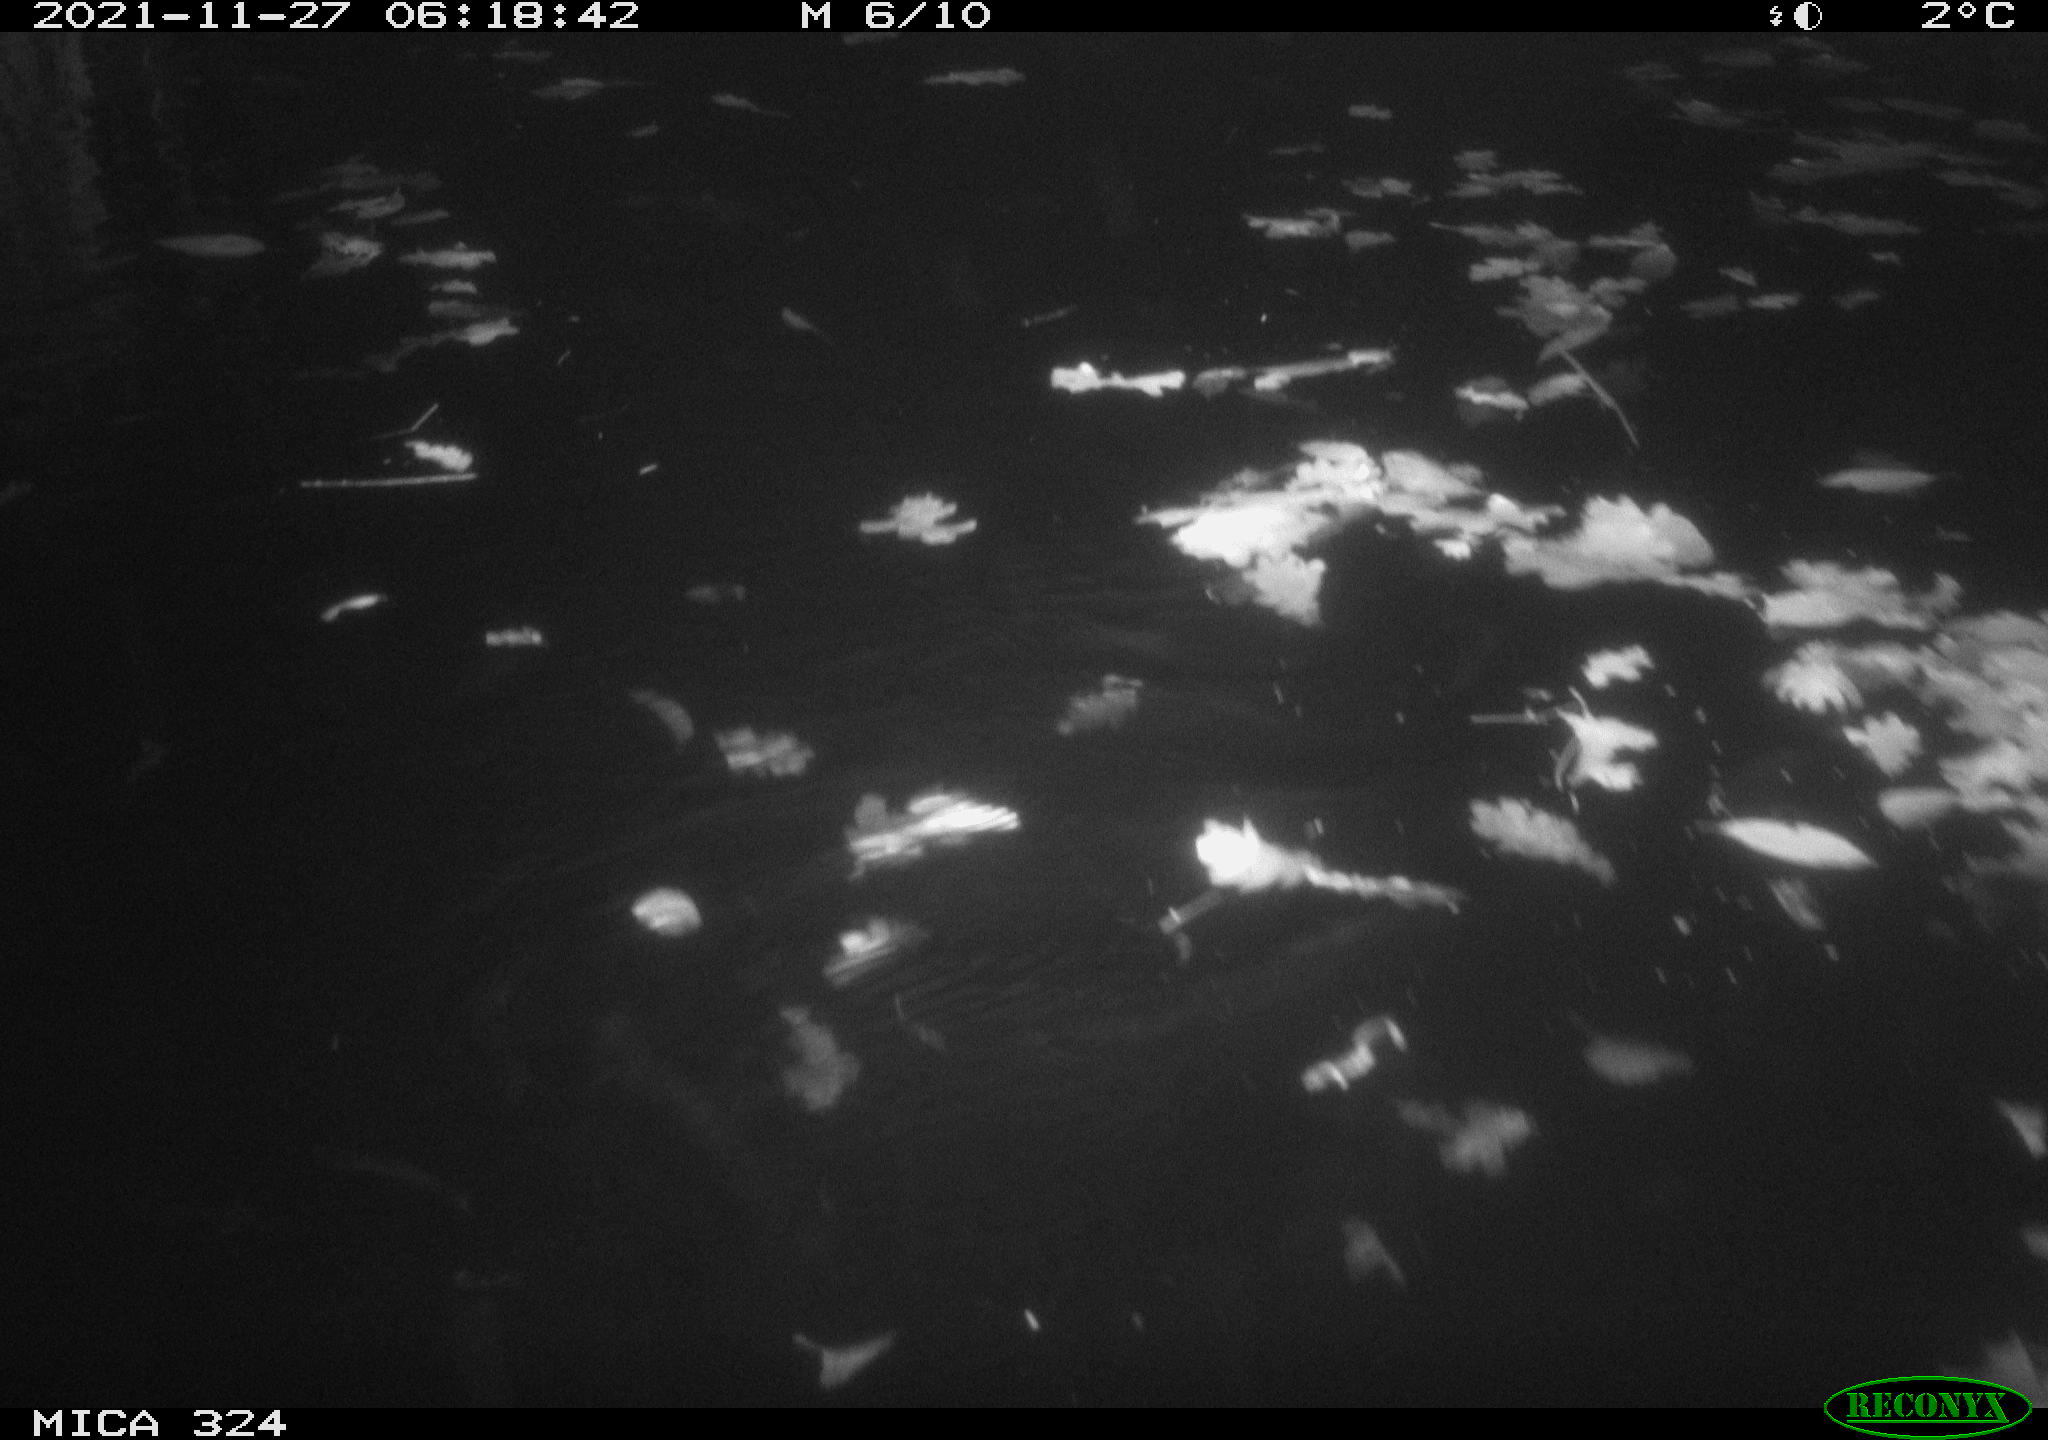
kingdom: Animalia
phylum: Chordata
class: Mammalia
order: Rodentia
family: Cricetidae
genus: Ondatra
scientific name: Ondatra zibethicus
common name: Muskrat
